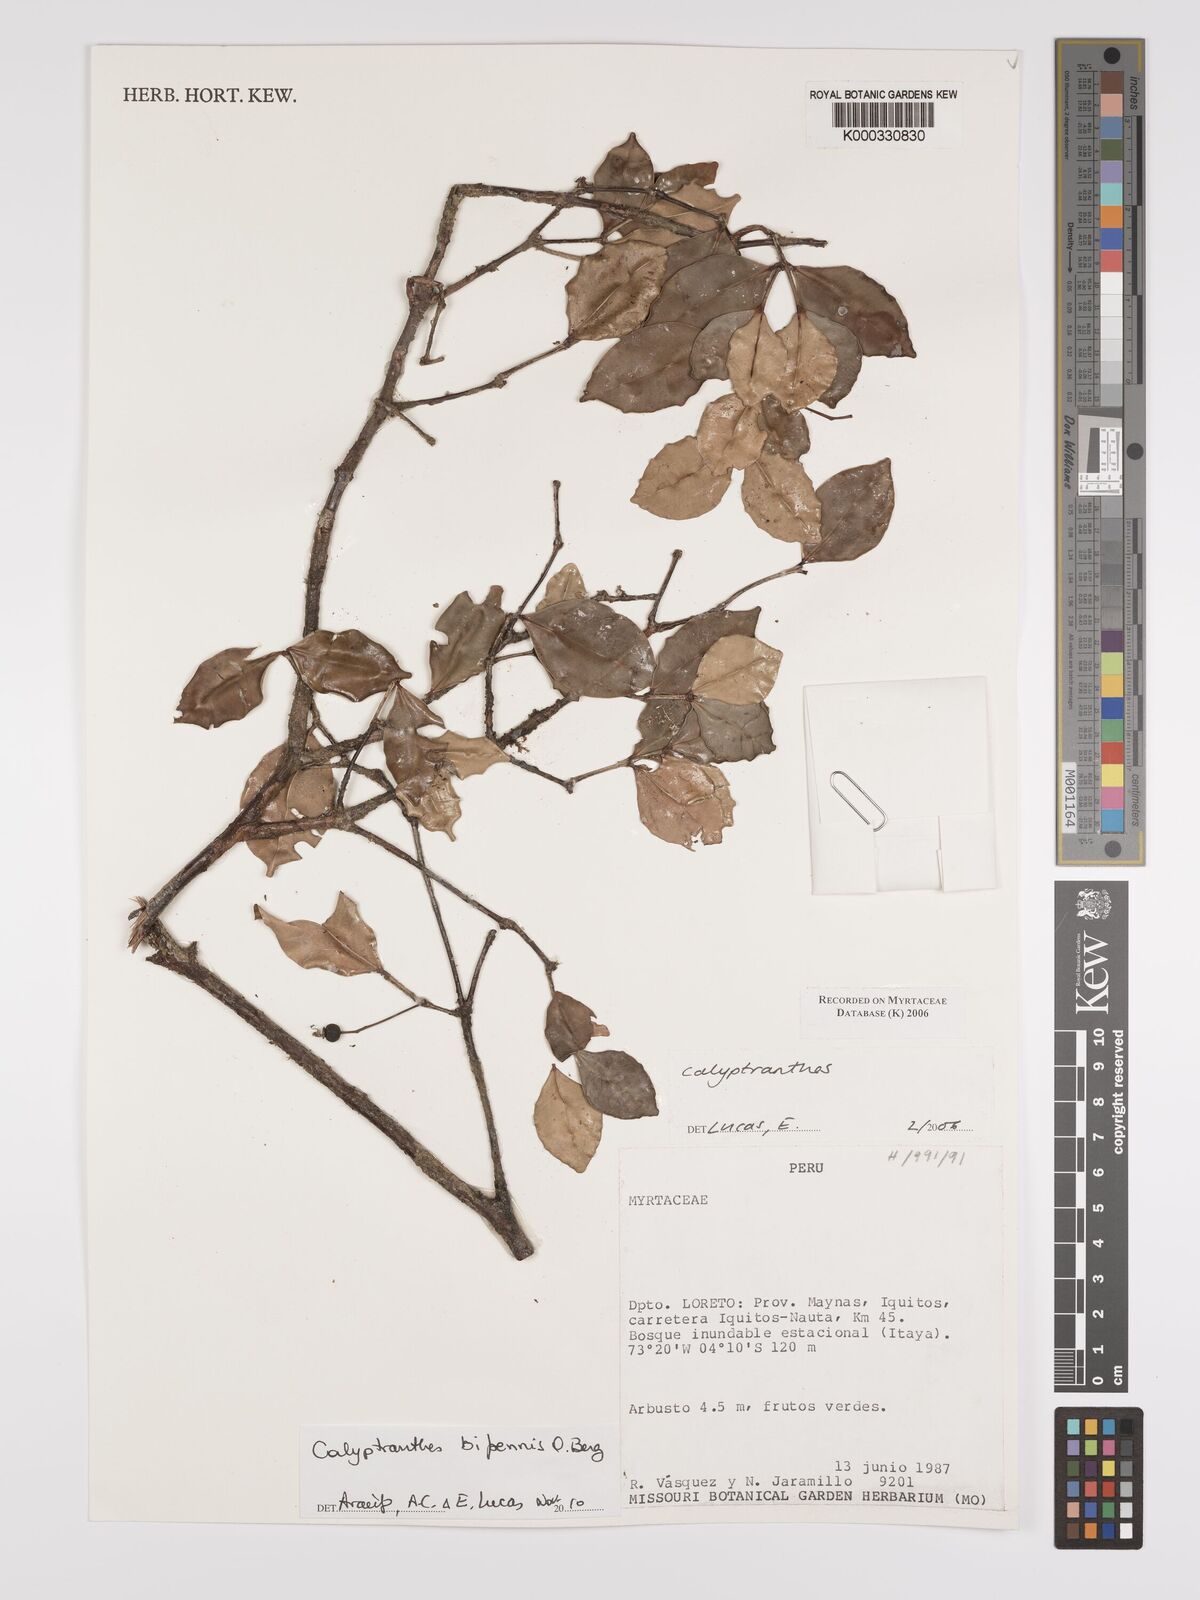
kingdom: Plantae
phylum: Tracheophyta
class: Magnoliopsida
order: Myrtales
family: Myrtaceae
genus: Calyptranthes
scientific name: Calyptranthes
